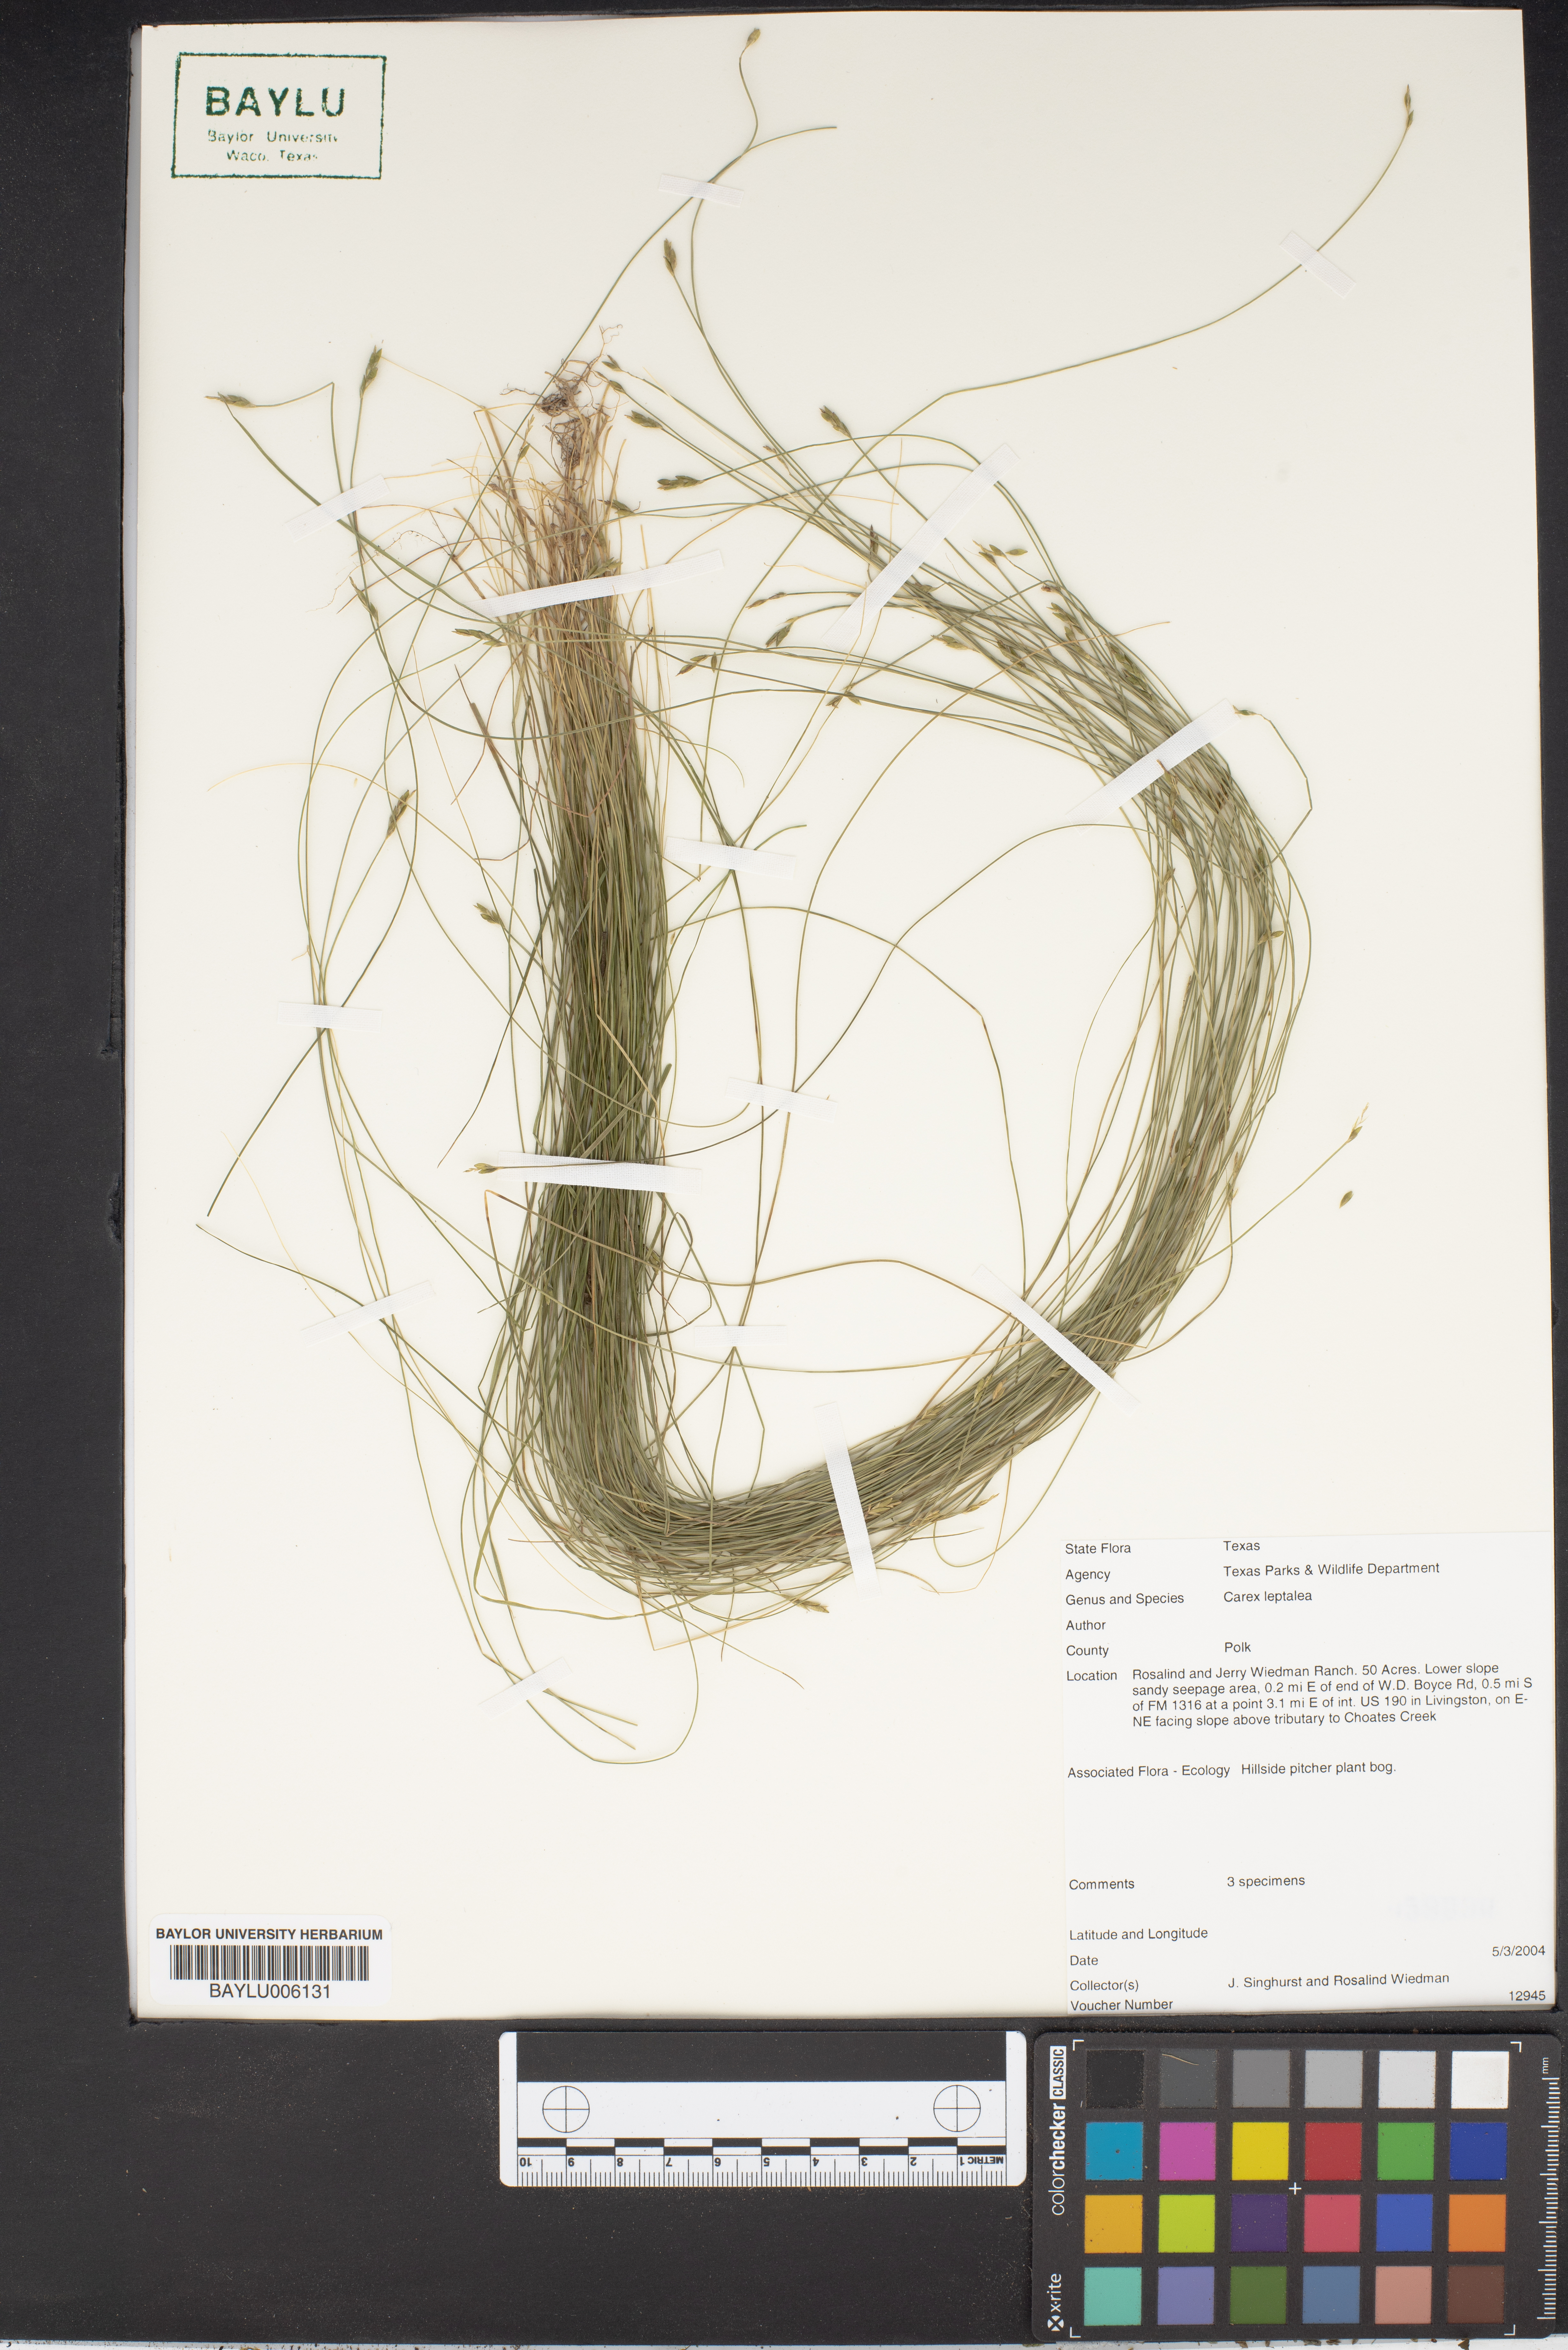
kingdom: Plantae
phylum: Tracheophyta
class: Liliopsida
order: Poales
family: Cyperaceae
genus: Carex
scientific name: Carex leptalea
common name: Bristly-stalked sedge
